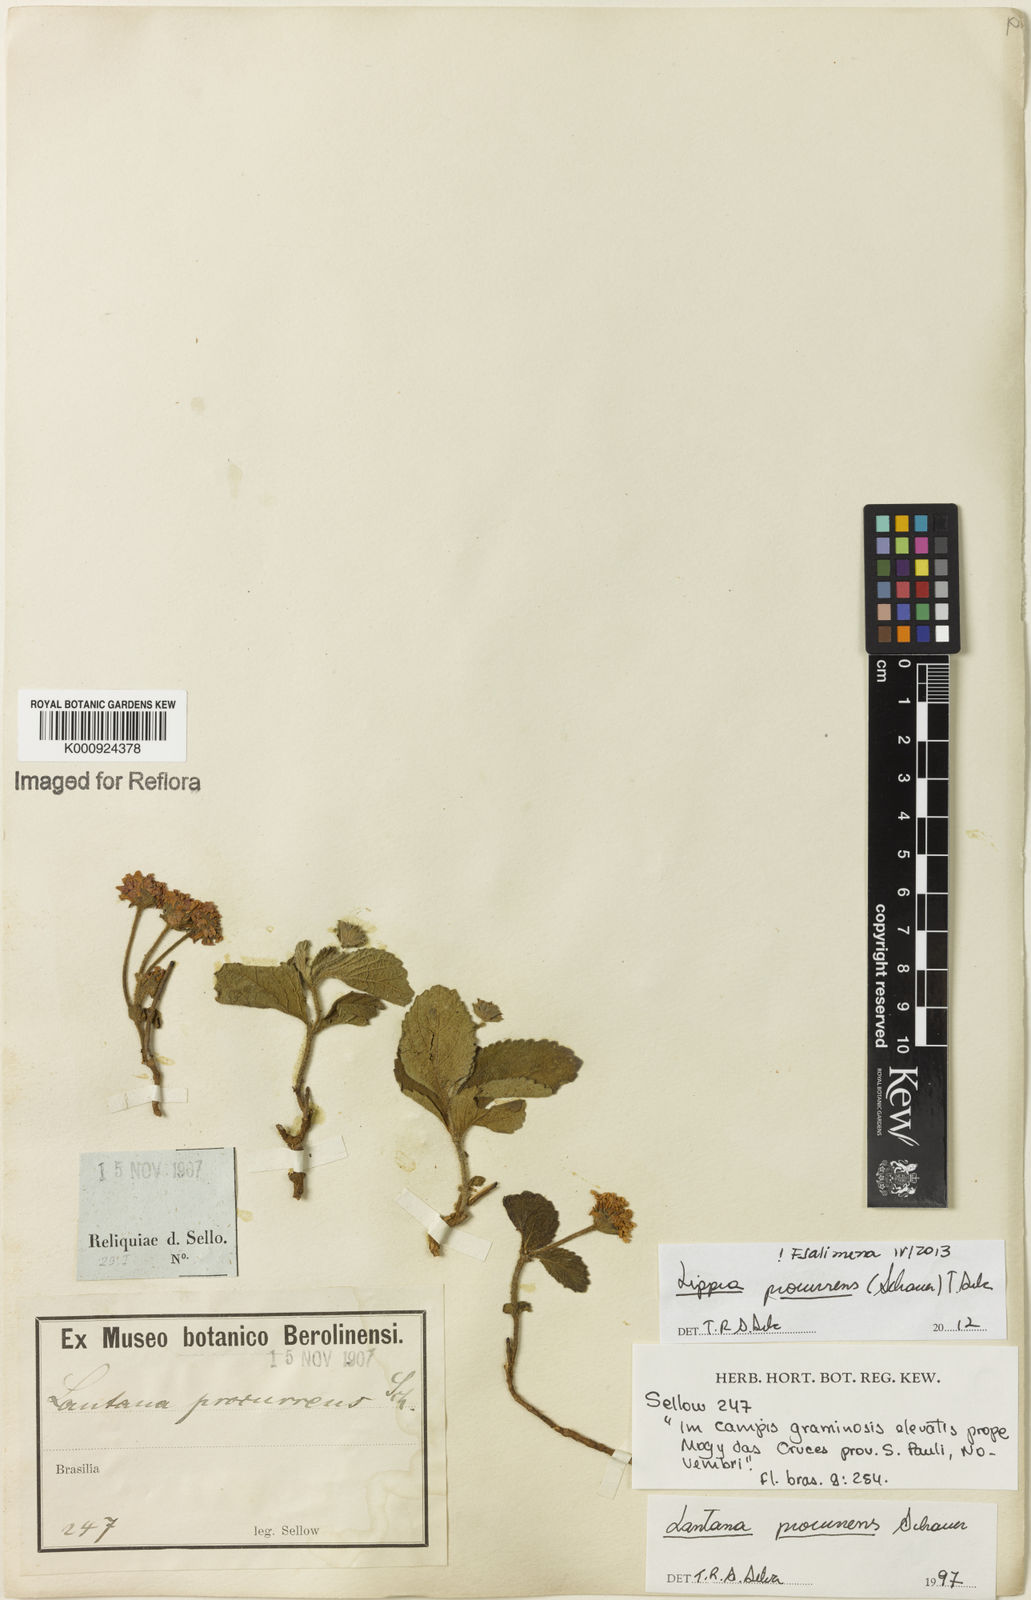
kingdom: Plantae
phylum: Tracheophyta
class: Magnoliopsida
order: Lamiales
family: Verbenaceae
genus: Lippia
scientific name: Lippia procurrens
